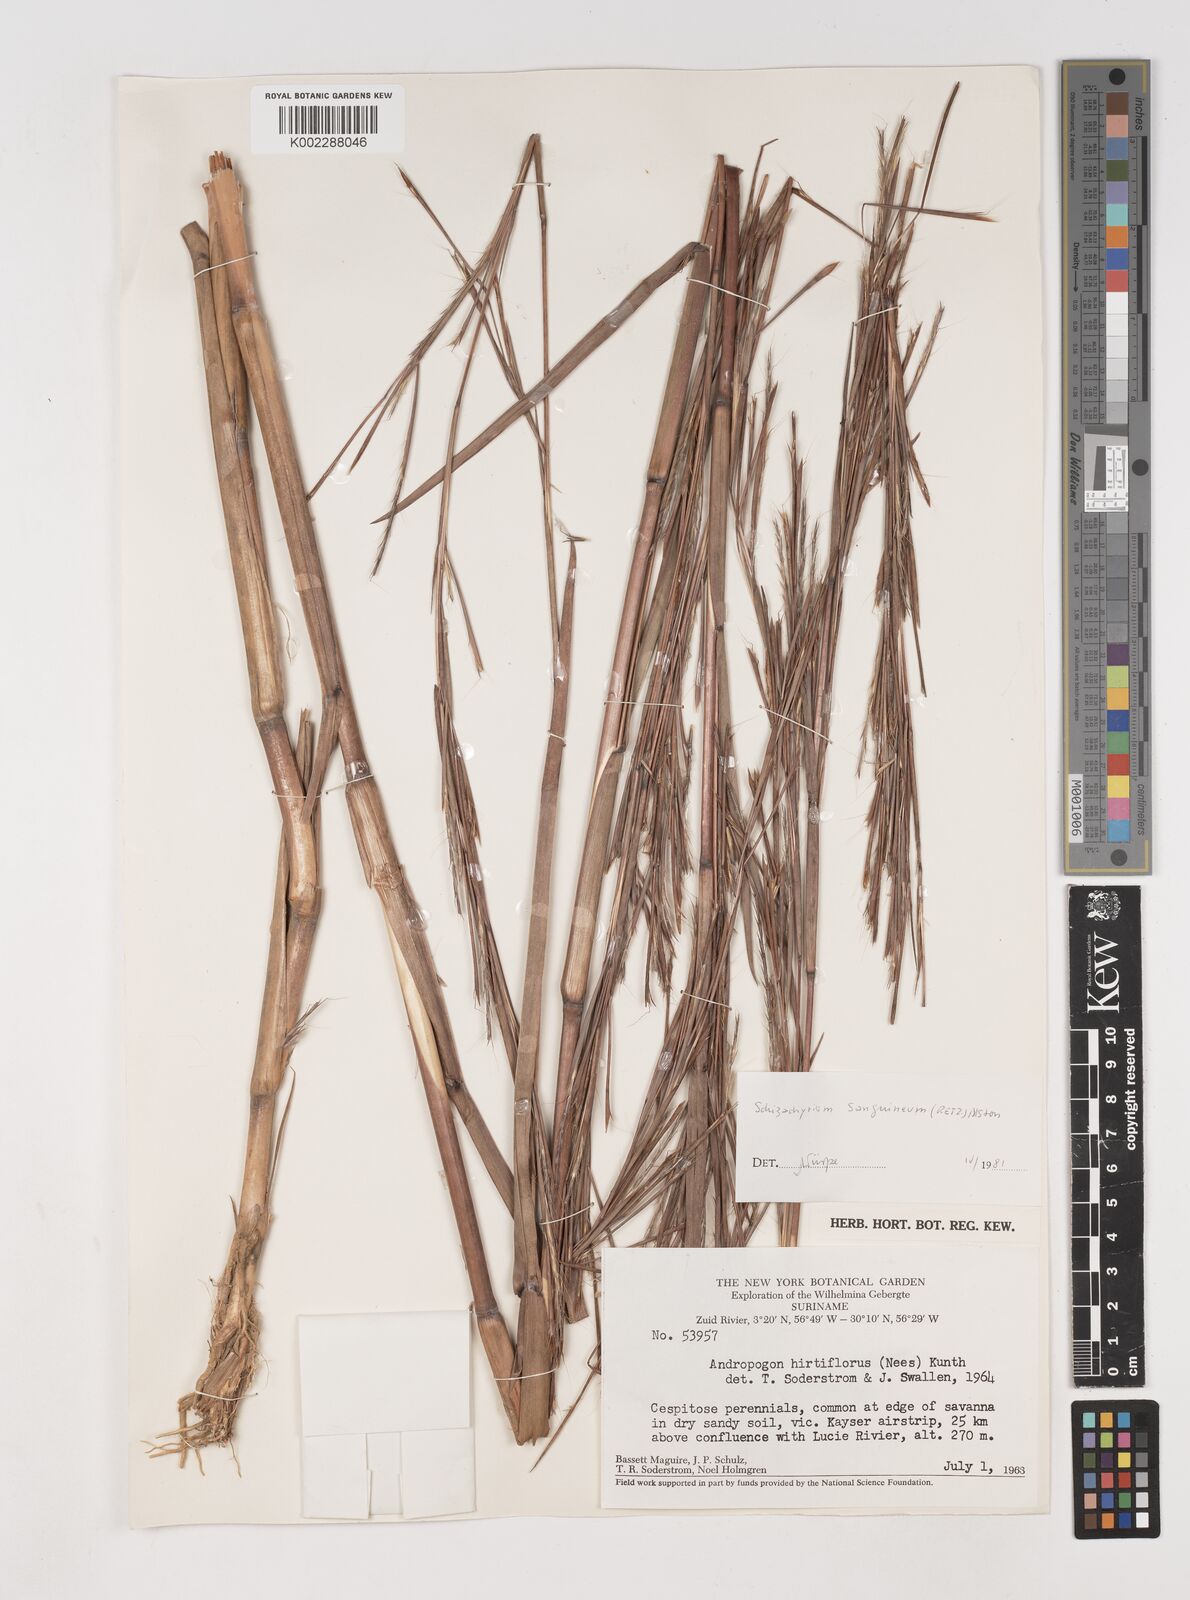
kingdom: Plantae
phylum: Tracheophyta
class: Liliopsida
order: Poales
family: Poaceae
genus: Schizachyrium
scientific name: Schizachyrium sanguineum
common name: Crimson bluestem
